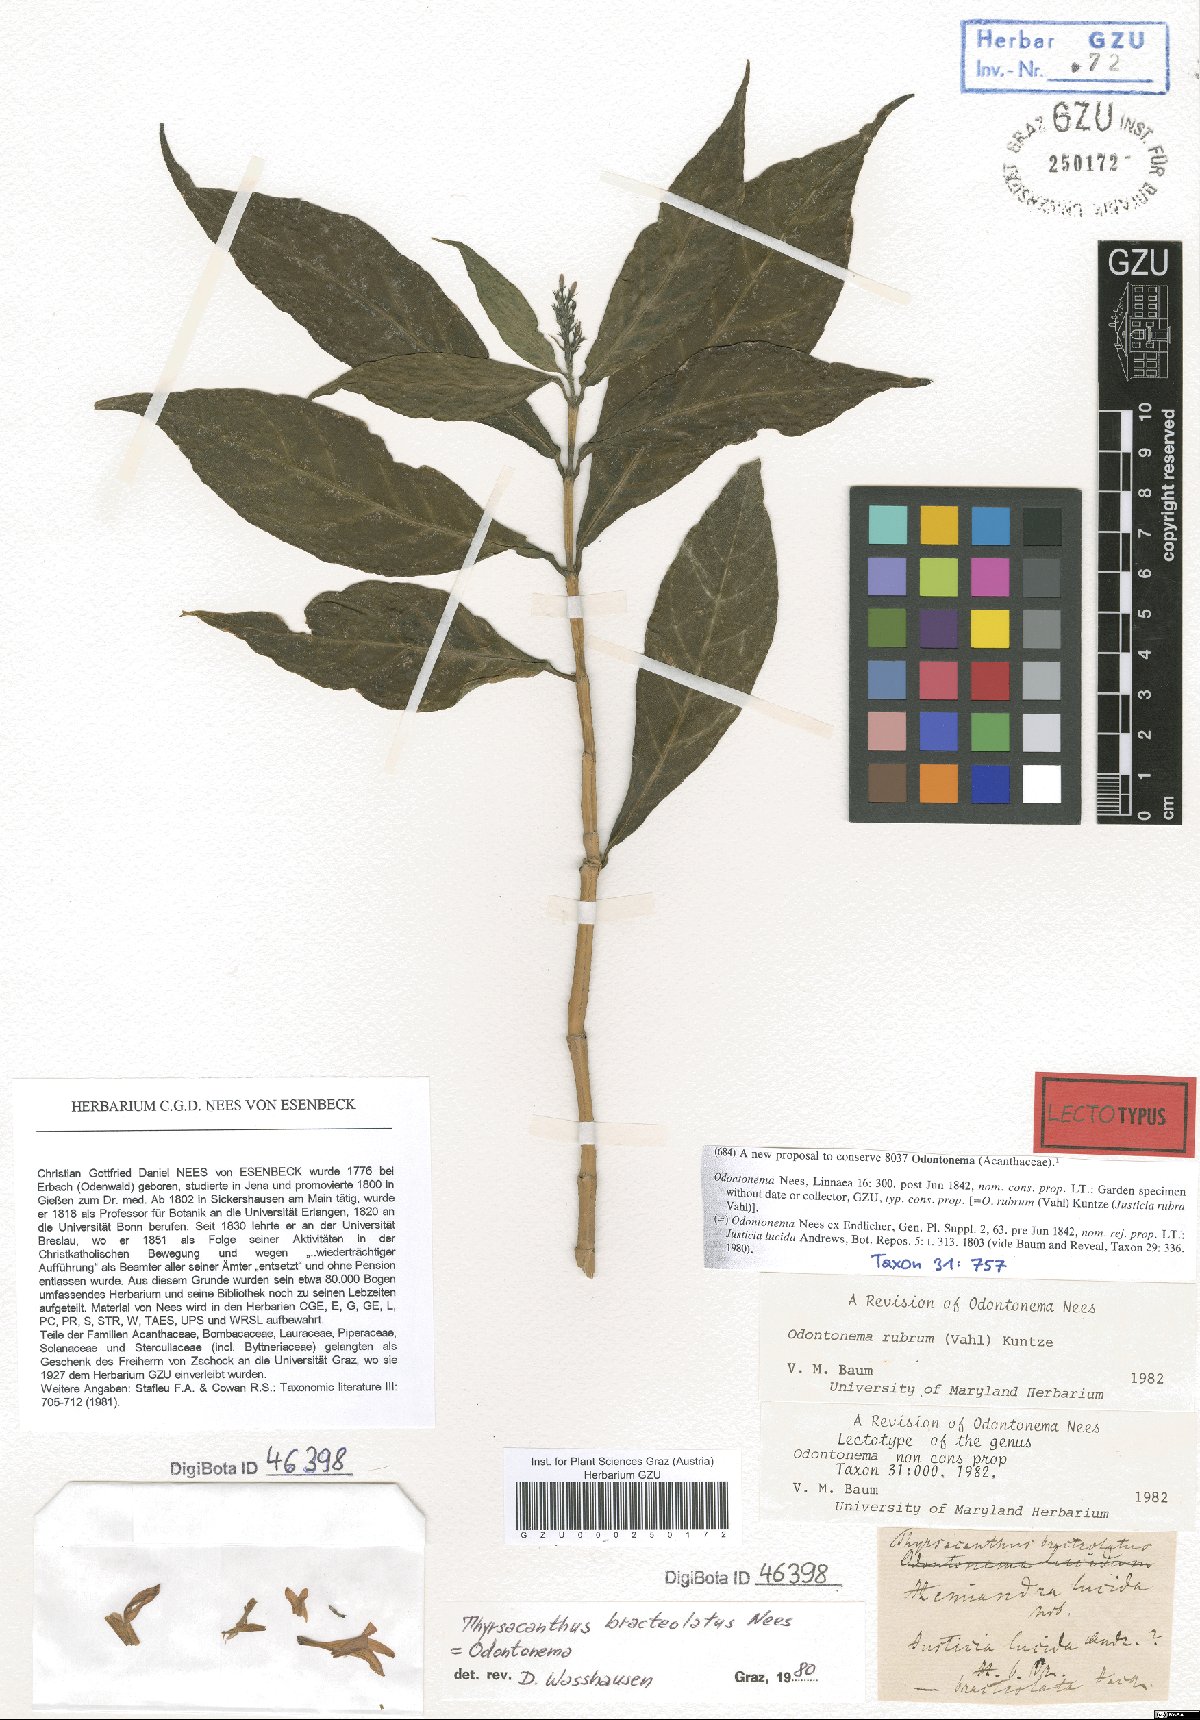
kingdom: Plantae
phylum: Tracheophyta
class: Magnoliopsida
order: Lamiales
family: Acanthaceae
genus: Odontonema
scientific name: Odontonema
